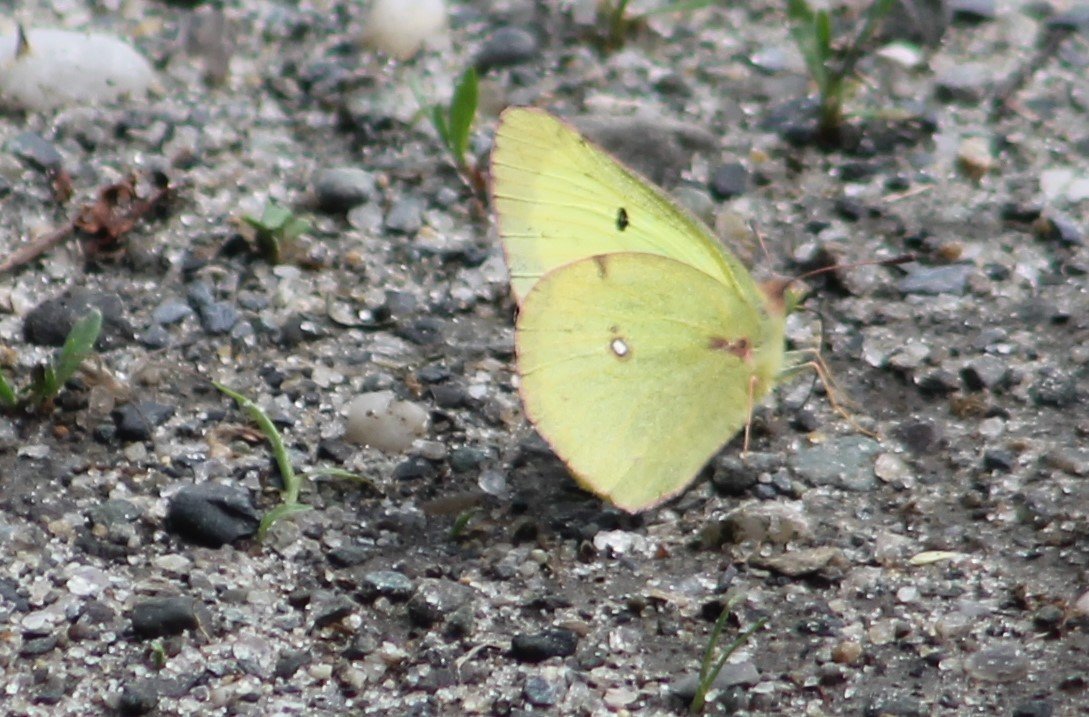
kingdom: Animalia
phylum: Arthropoda
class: Insecta
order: Lepidoptera
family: Pieridae
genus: Colias
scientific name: Colias philodice
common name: Clouded Sulphur
